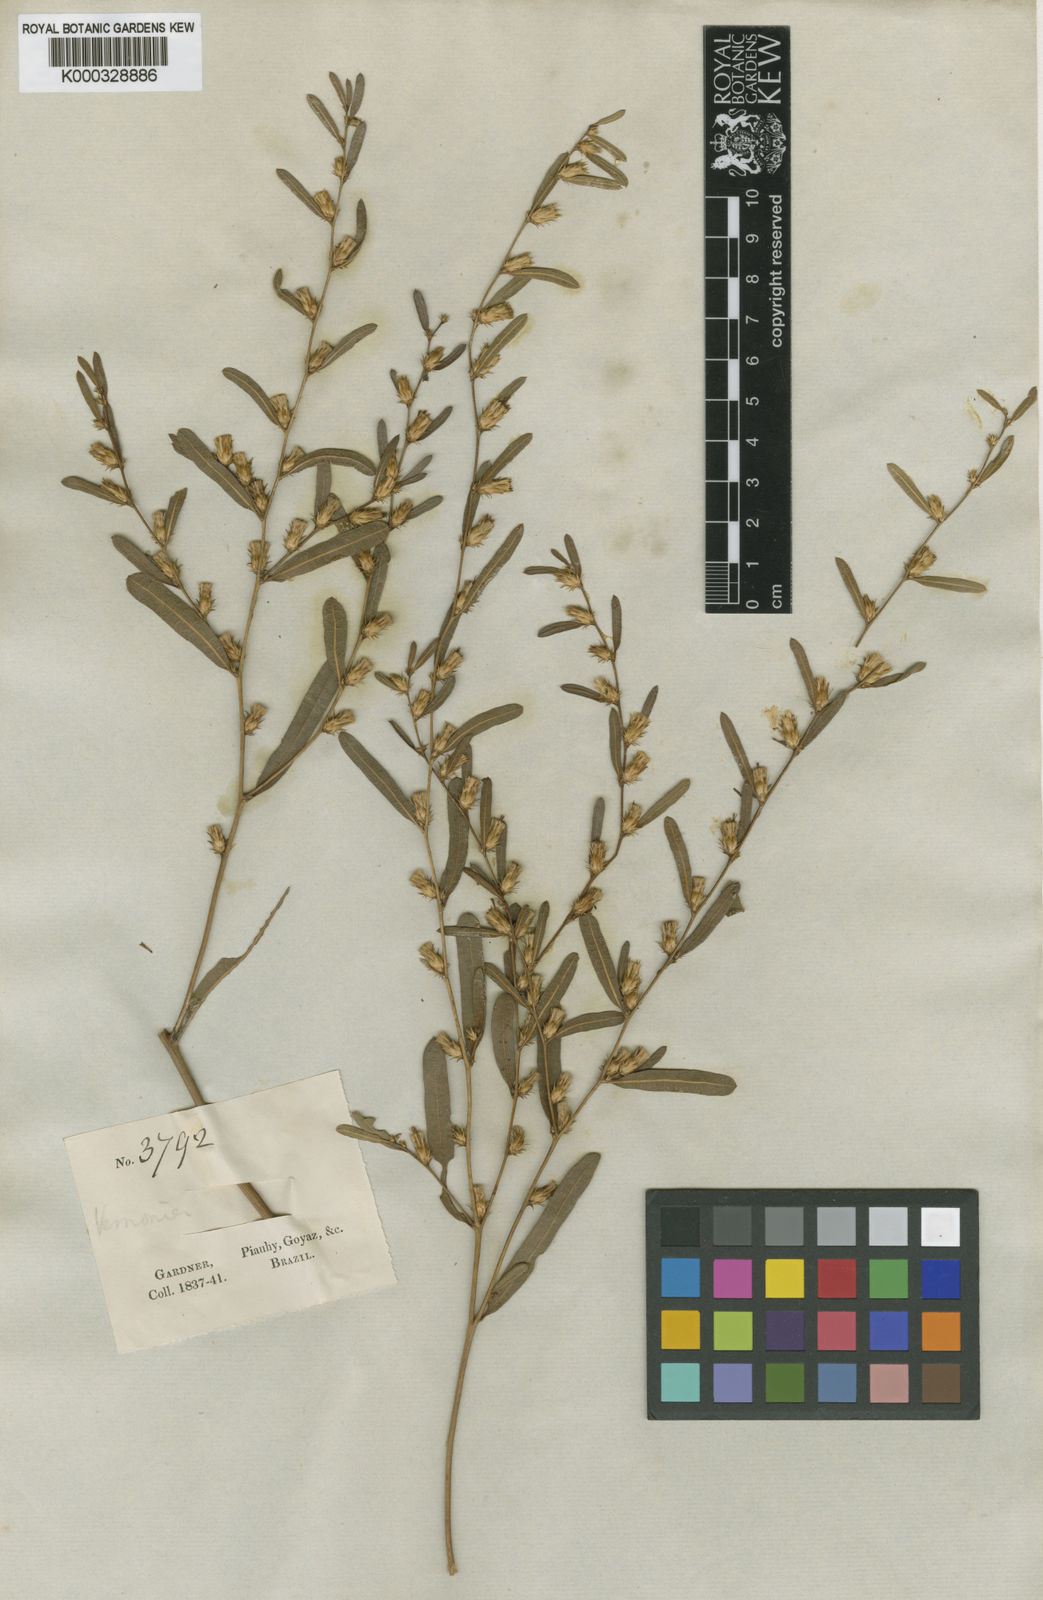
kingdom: Plantae
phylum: Tracheophyta
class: Magnoliopsida
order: Asterales
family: Asteraceae
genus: Lessingianthus
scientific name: Lessingianthus hoveifolius
